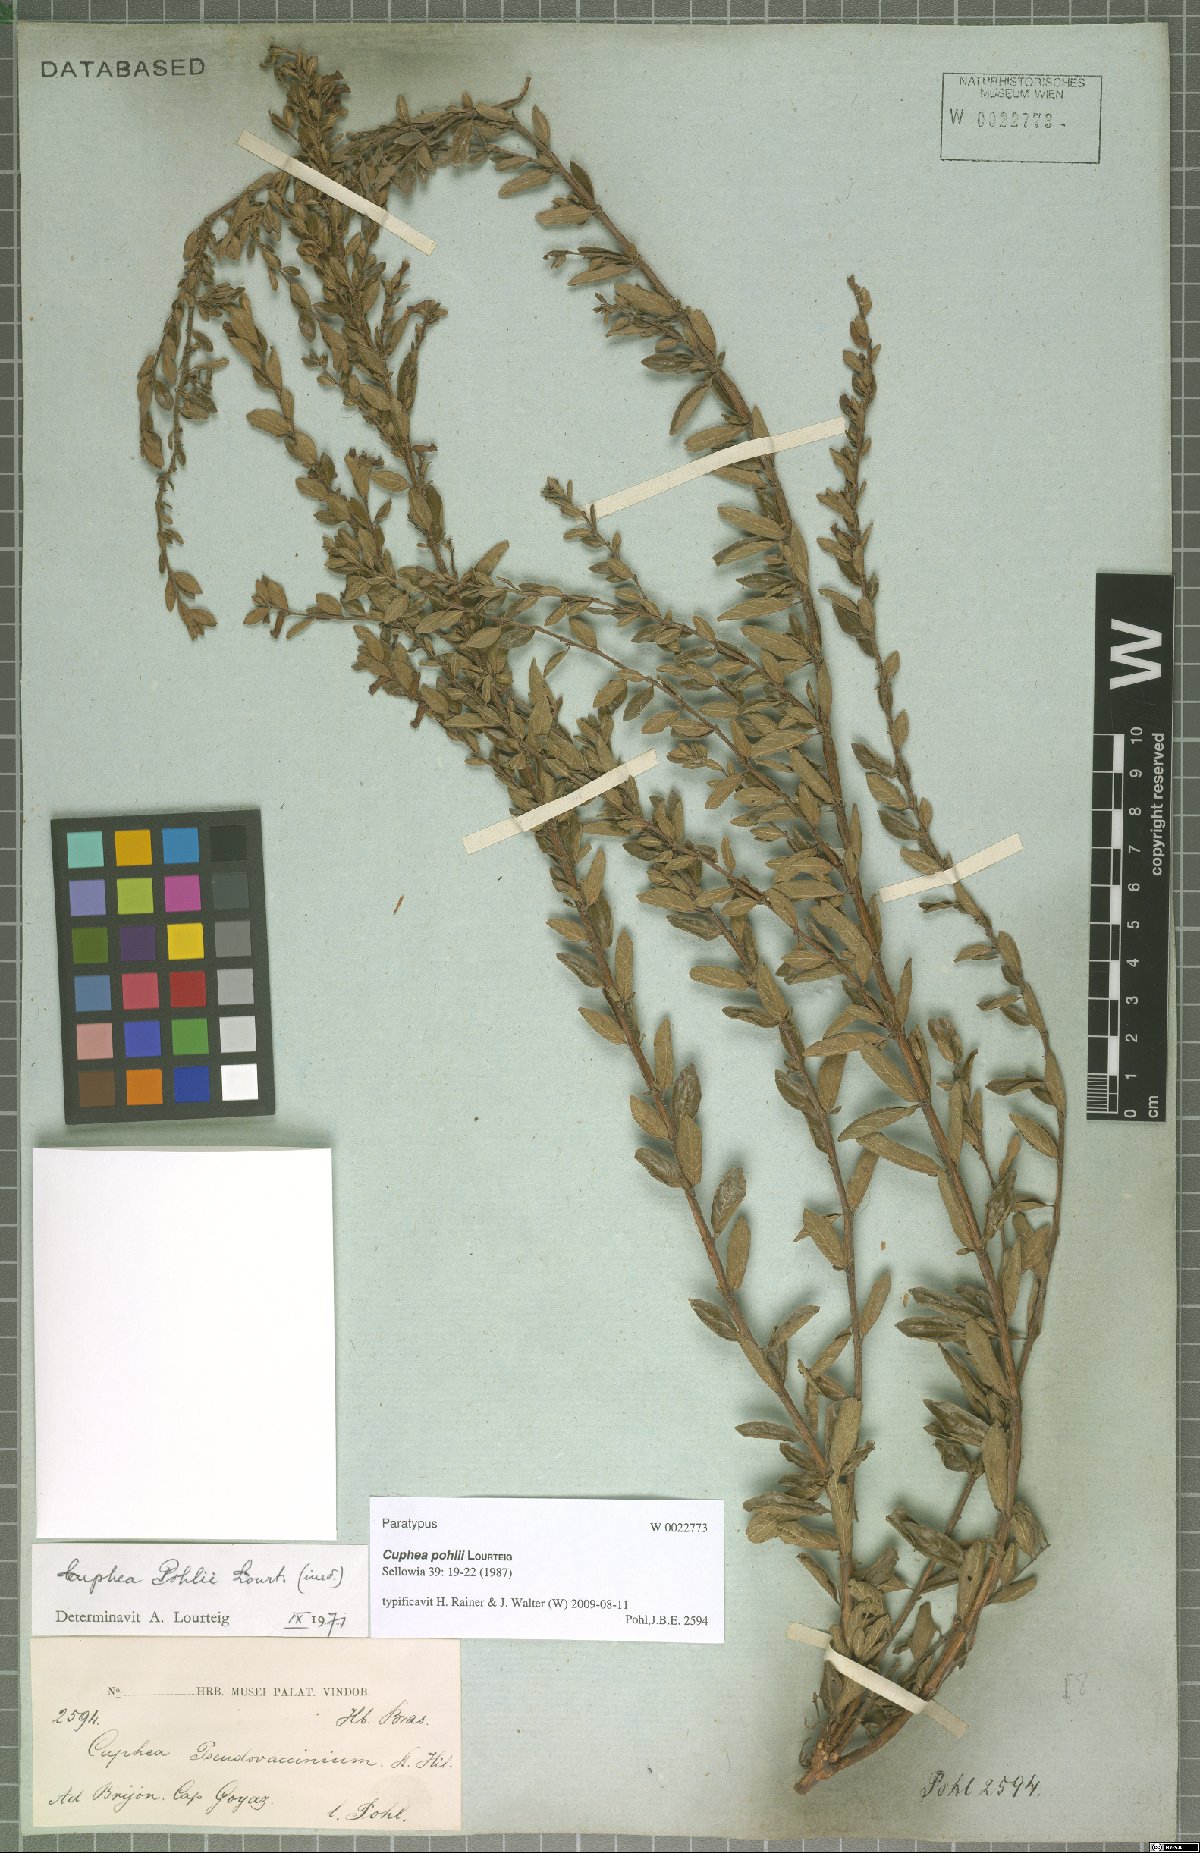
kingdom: Plantae
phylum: Tracheophyta
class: Magnoliopsida
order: Myrtales
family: Lythraceae
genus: Cuphea
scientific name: Cuphea pohlii
